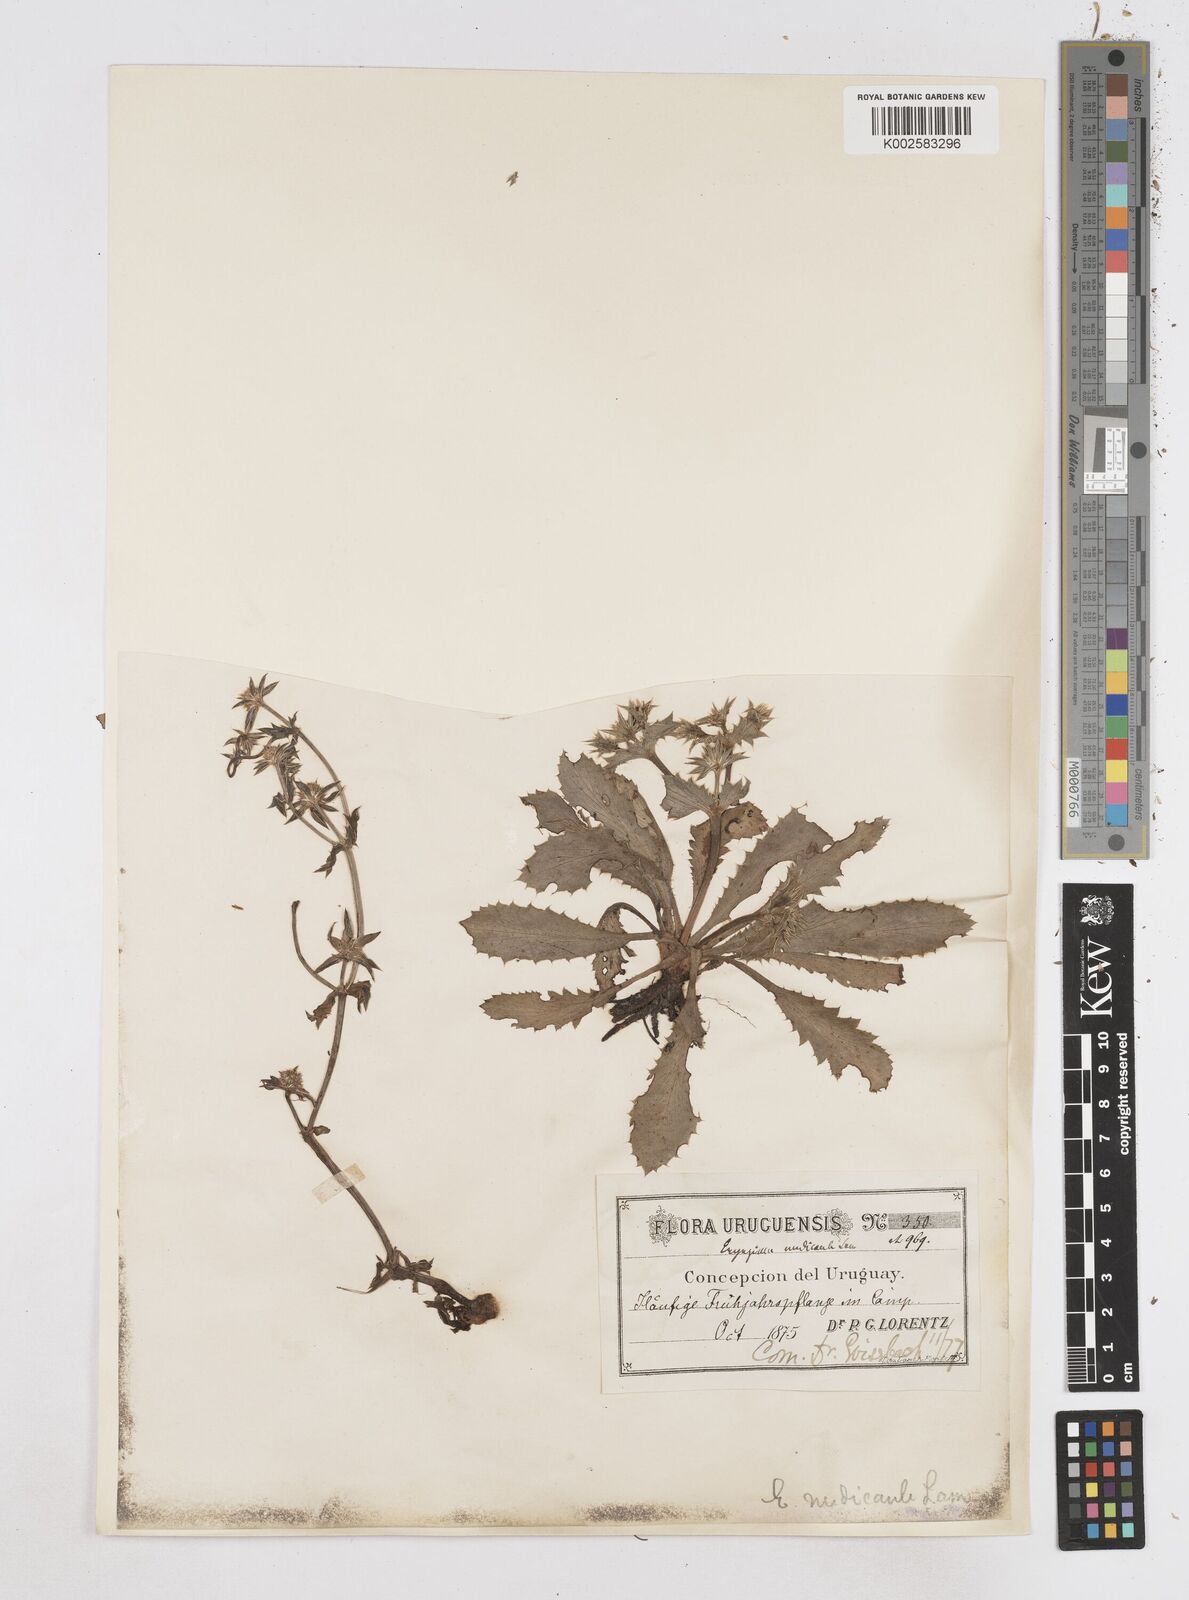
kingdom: Plantae
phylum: Tracheophyta
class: Magnoliopsida
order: Apiales
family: Apiaceae
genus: Eryngium
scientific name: Eryngium nudicaule
